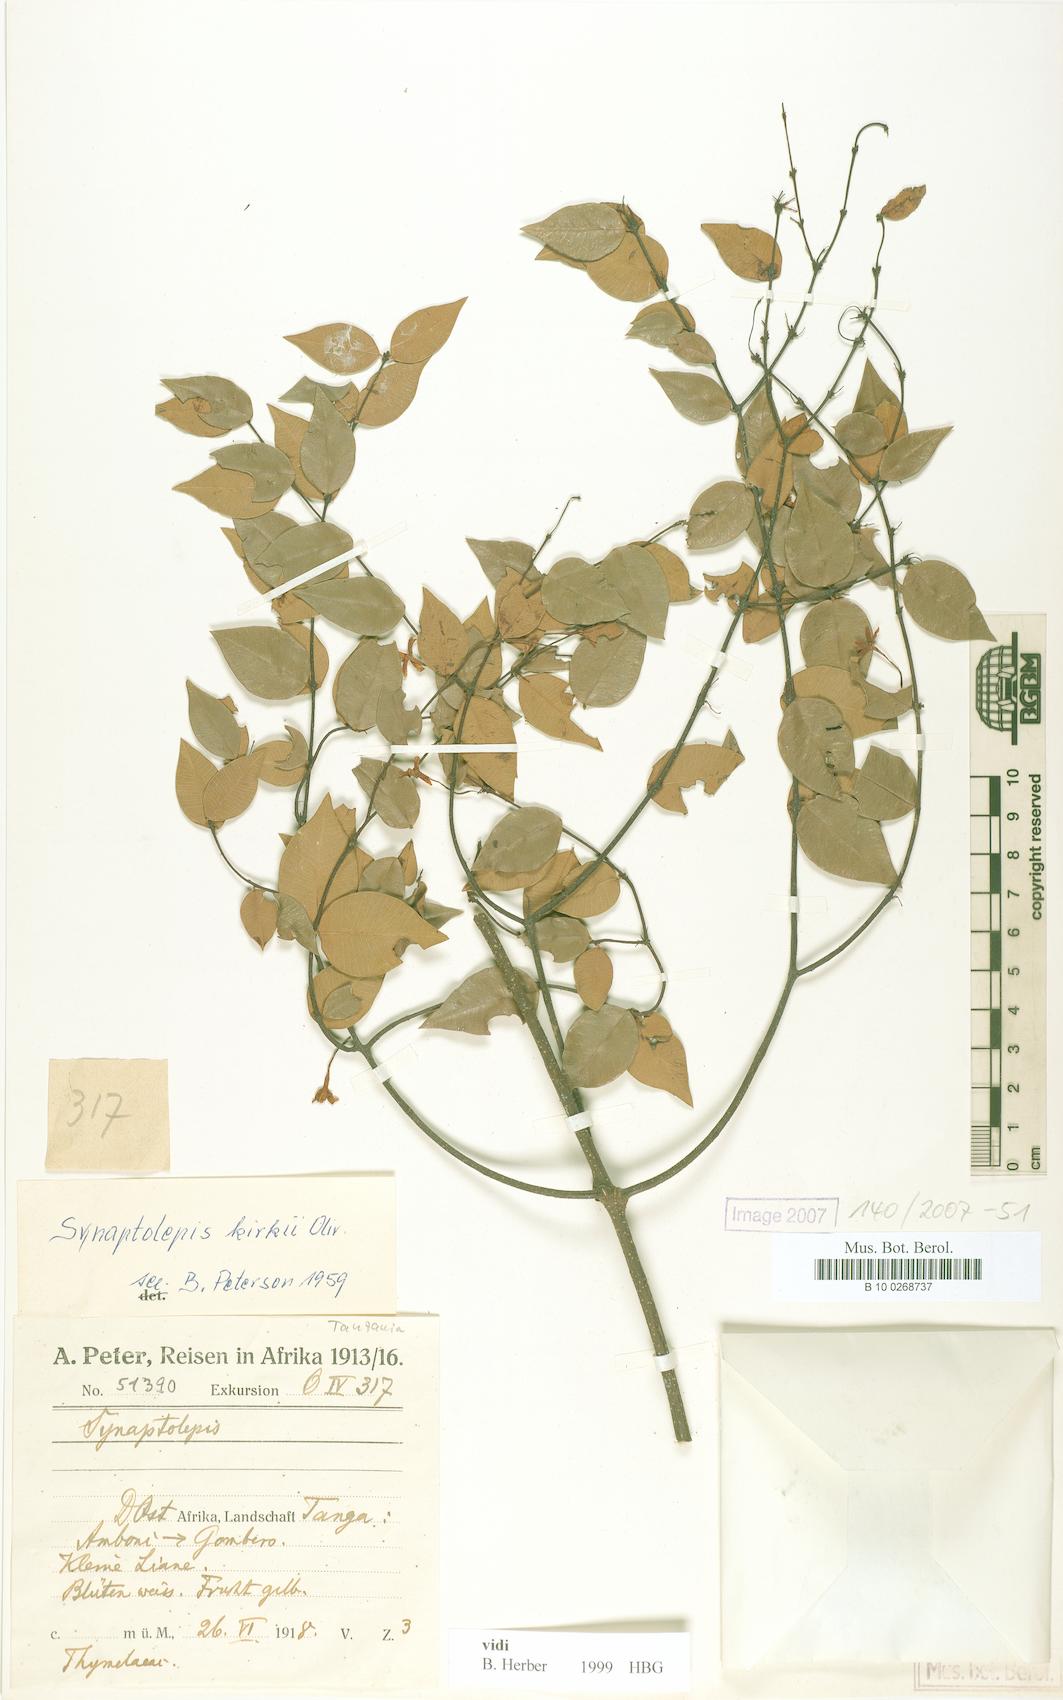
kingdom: Plantae
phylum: Tracheophyta
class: Magnoliopsida
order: Malvales
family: Thymelaeaceae
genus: Synaptolepis
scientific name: Synaptolepis kirkii
